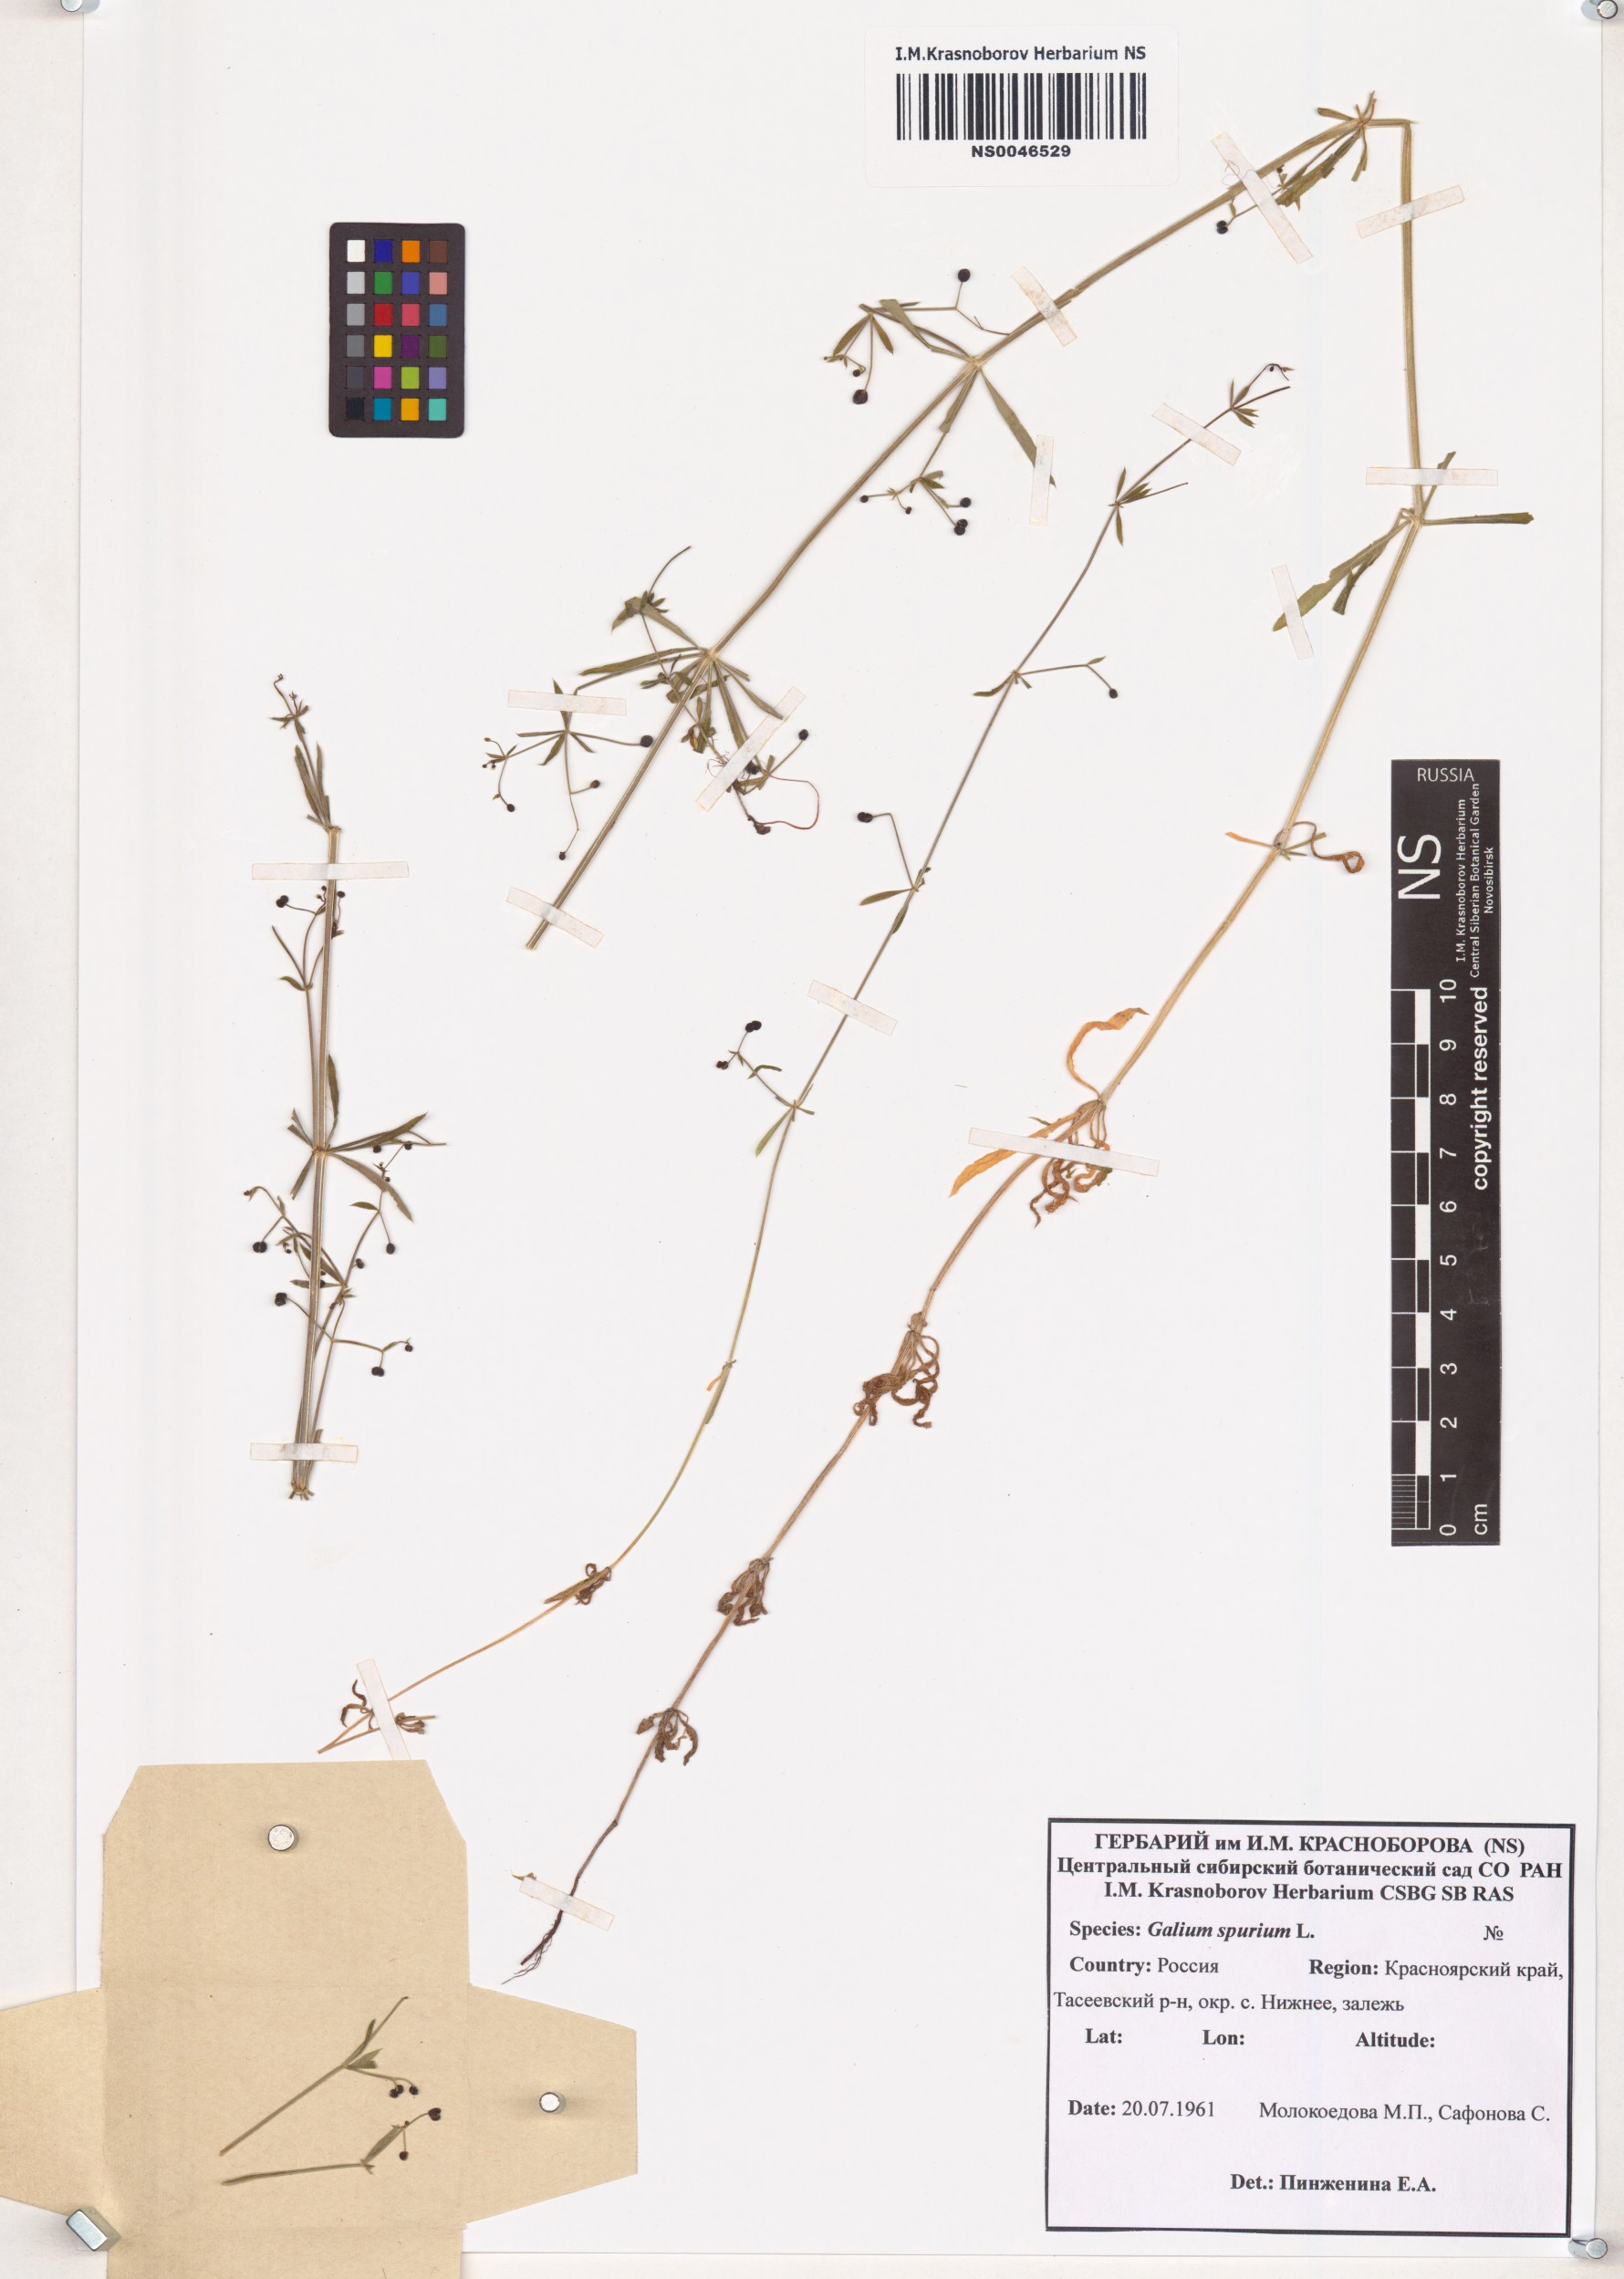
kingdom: Plantae
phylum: Tracheophyta
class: Magnoliopsida
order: Gentianales
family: Rubiaceae
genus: Galium
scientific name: Galium spurium
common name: False cleavers
